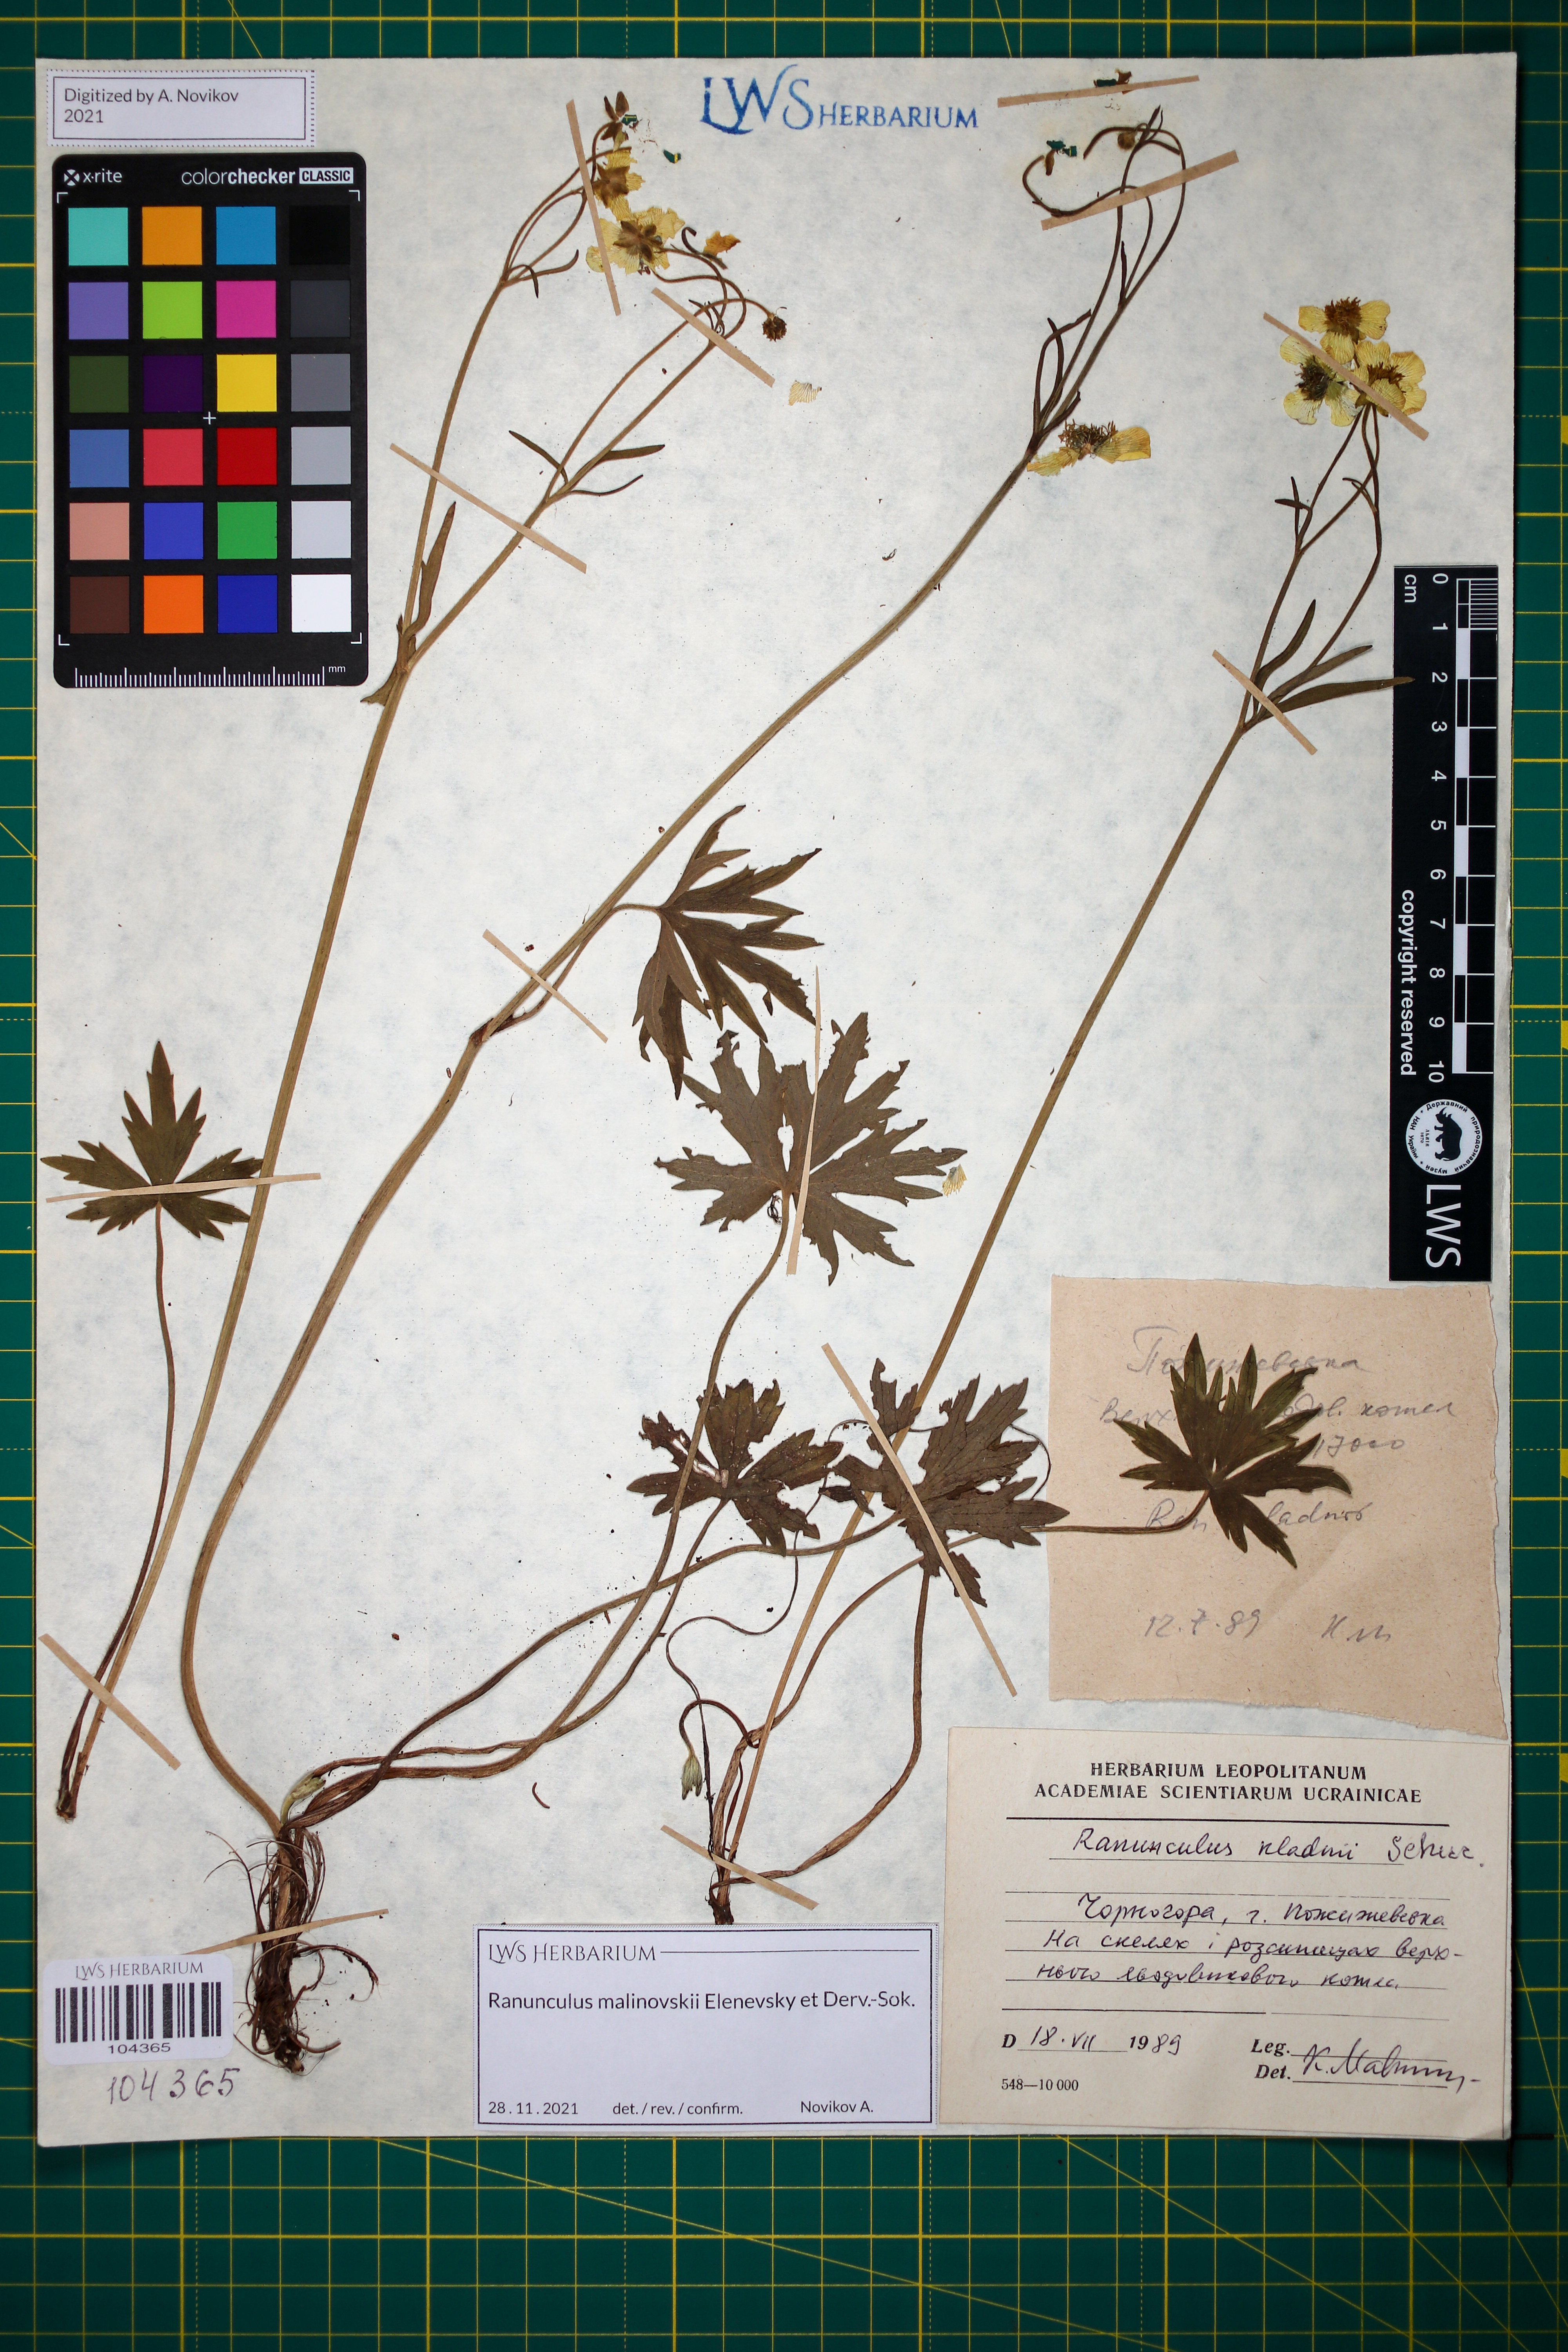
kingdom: Plantae
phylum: Tracheophyta
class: Magnoliopsida
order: Ranunculales
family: Ranunculaceae
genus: Ranunculus
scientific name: Ranunculus malinovskii
